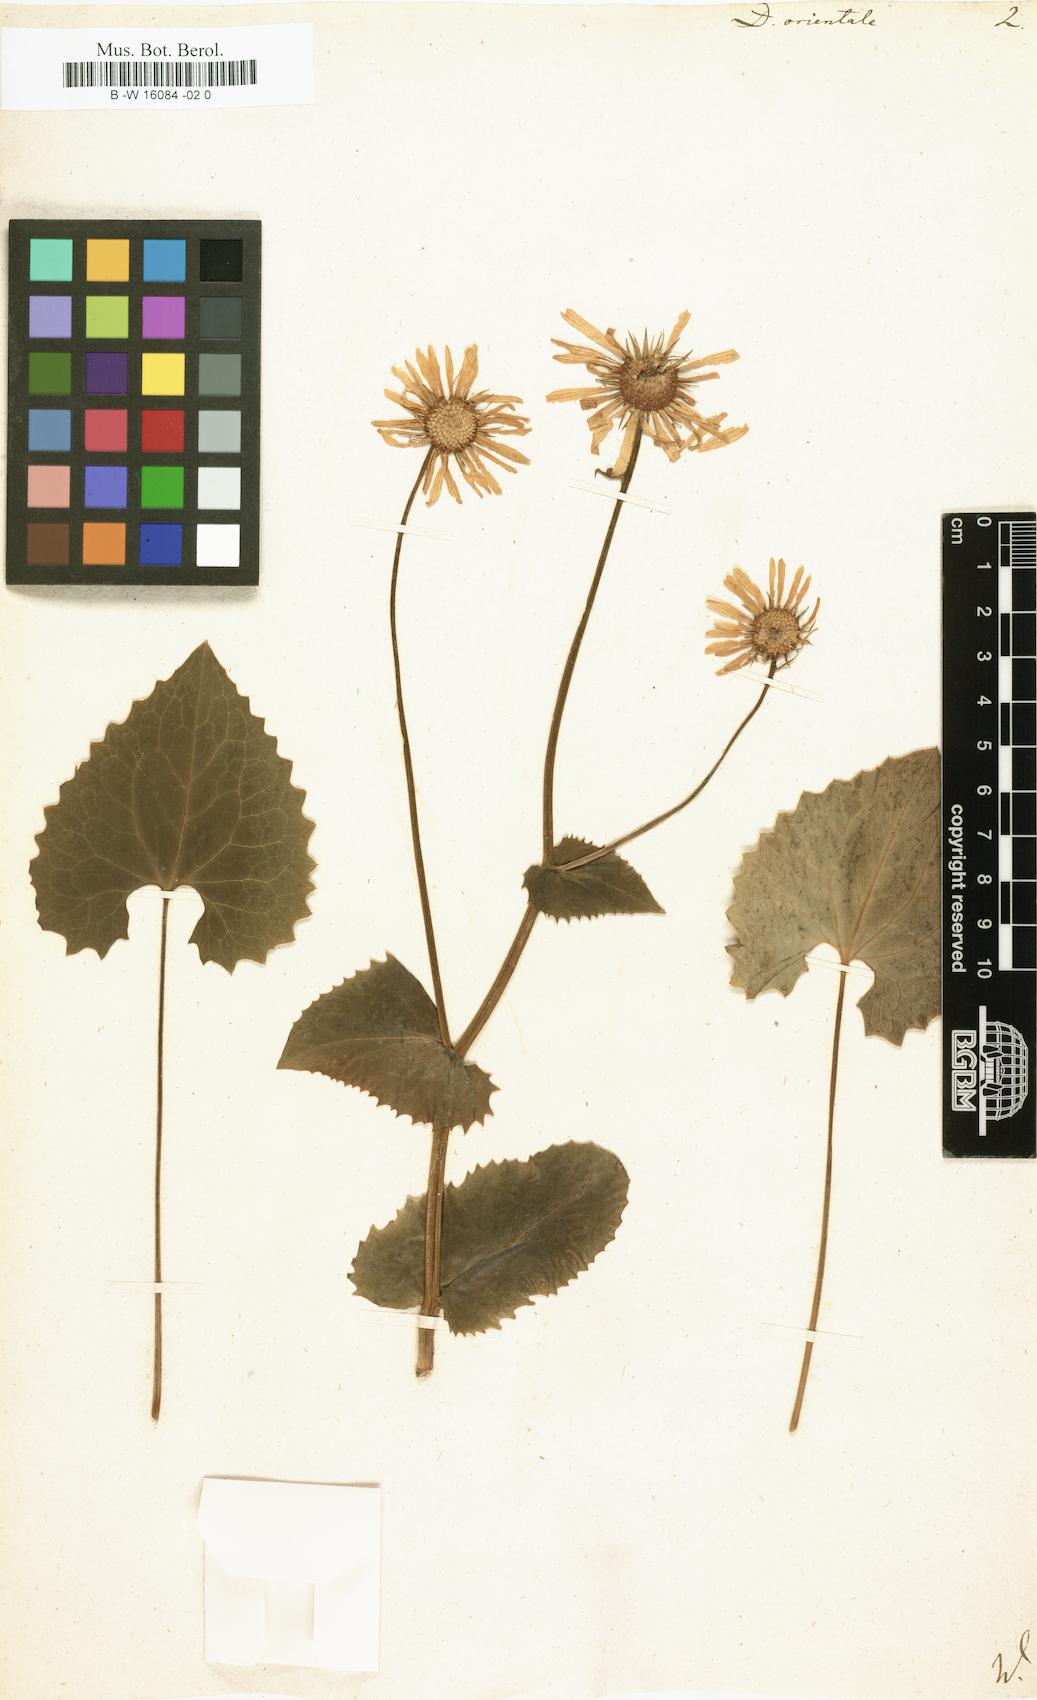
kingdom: Plantae
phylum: Tracheophyta
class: Magnoliopsida
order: Asterales
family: Asteraceae
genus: Doronicum
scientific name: Doronicum orientale
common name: Oriental leopard's-bane
